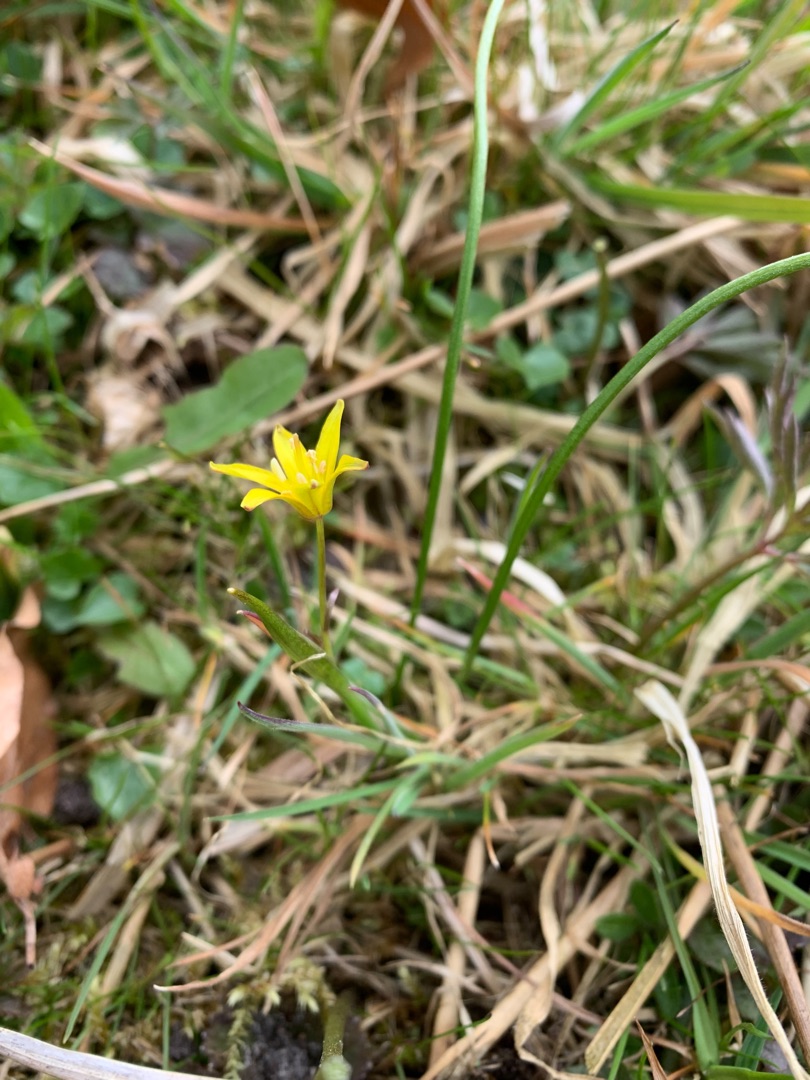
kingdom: Plantae
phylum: Tracheophyta
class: Liliopsida
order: Liliales
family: Liliaceae
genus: Gagea
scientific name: Gagea spathacea
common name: Hylster-guldstjerne
